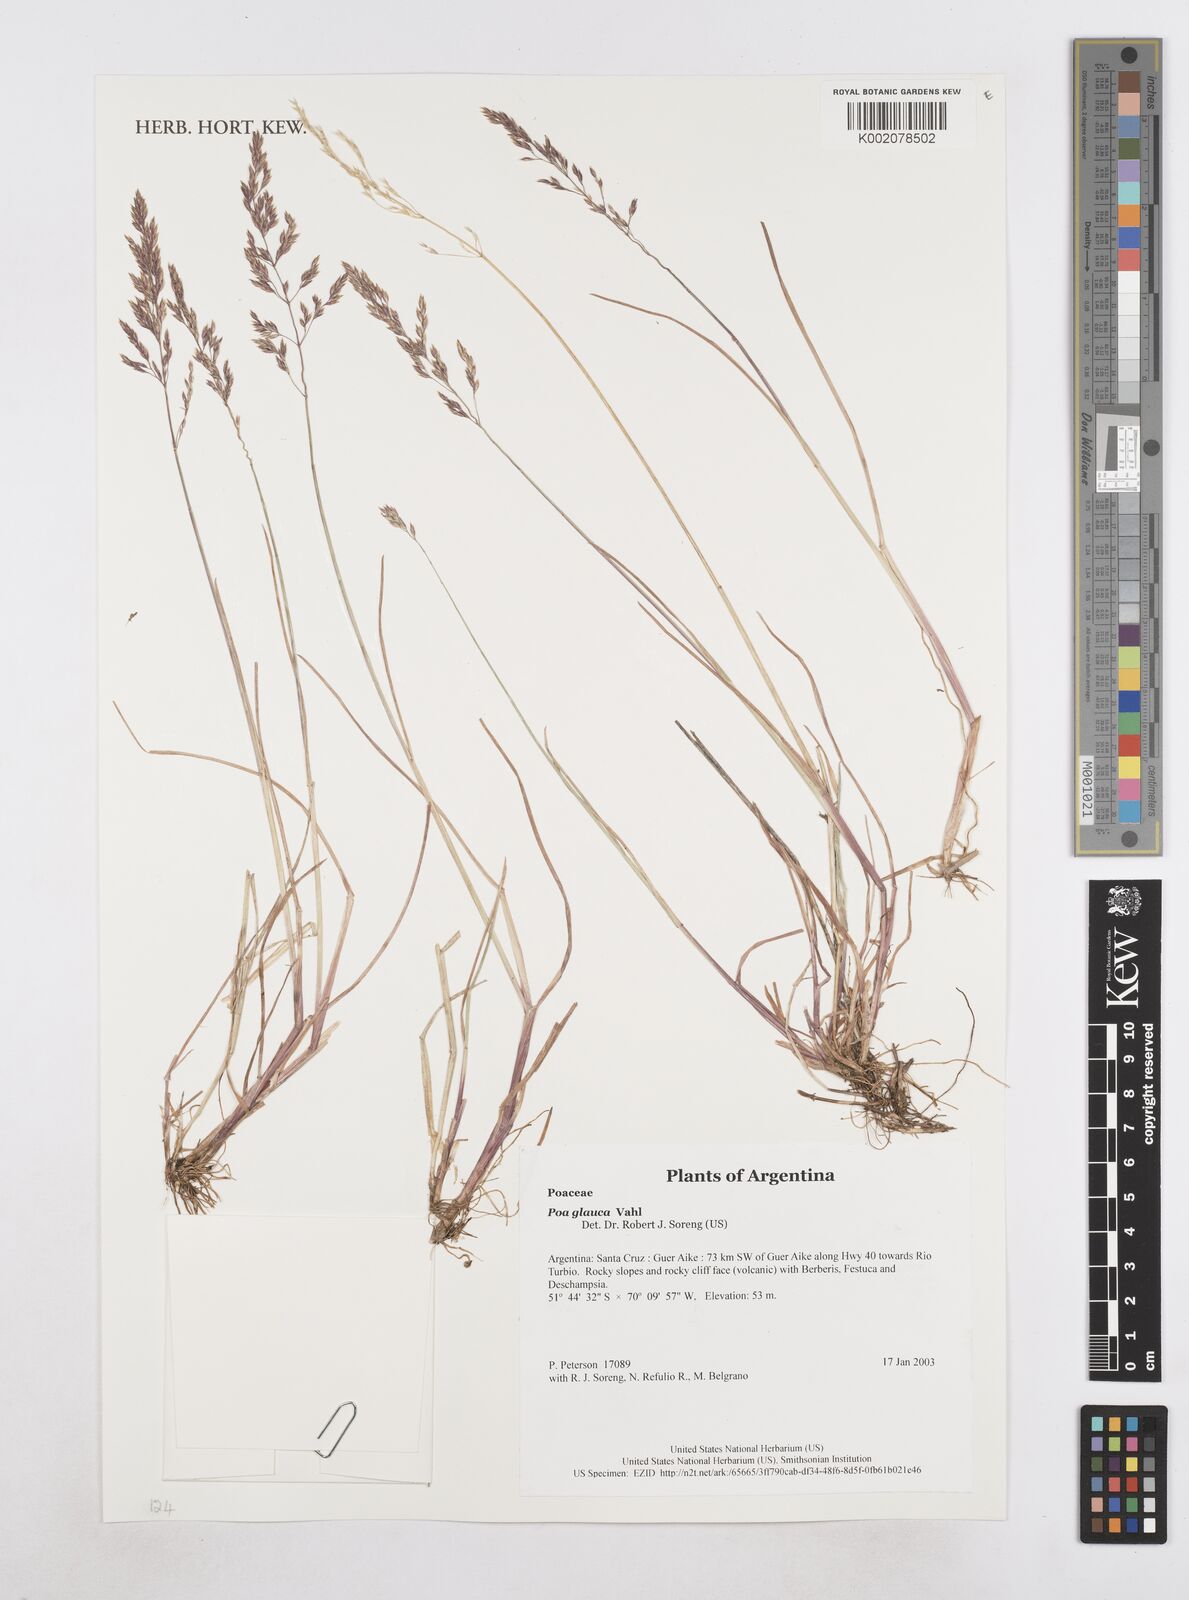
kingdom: Plantae
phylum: Tracheophyta
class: Liliopsida
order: Poales
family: Poaceae
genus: Poa
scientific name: Poa glauca
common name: Glaucous bluegrass
